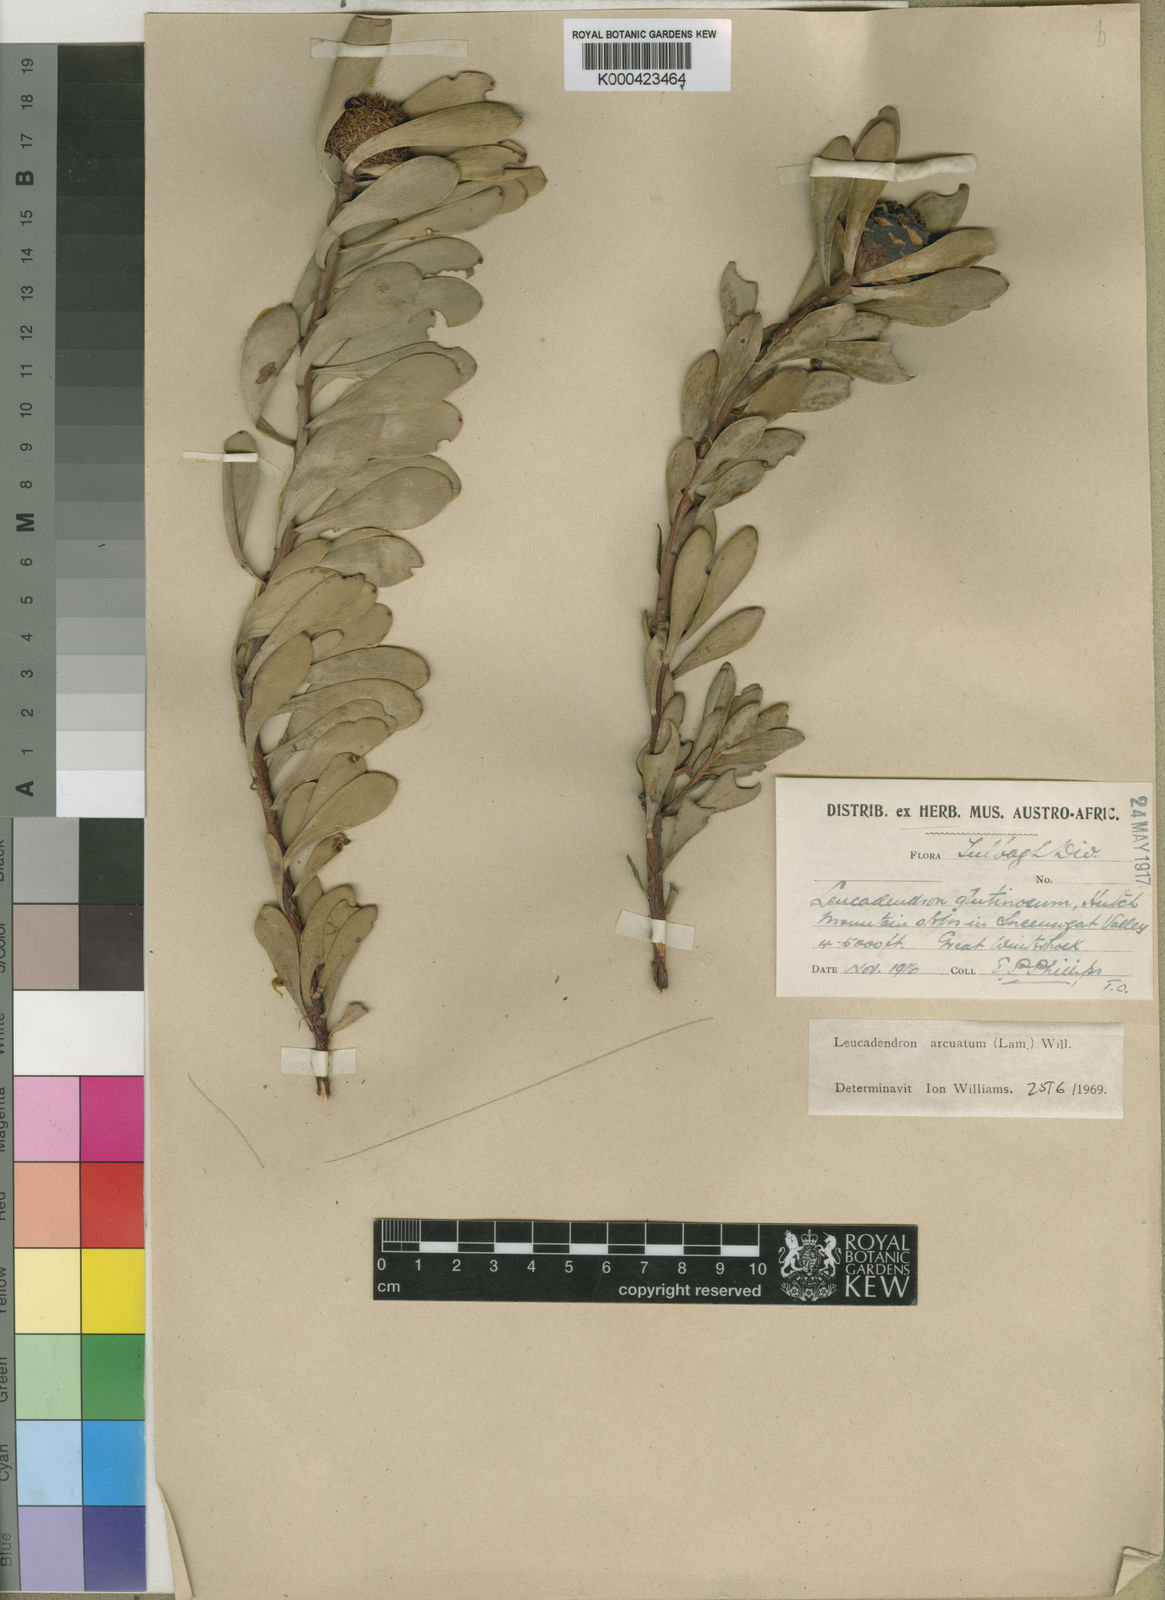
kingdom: Plantae
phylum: Tracheophyta
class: Magnoliopsida
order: Proteales
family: Proteaceae
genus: Leucadendron
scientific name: Leucadendron arcuatum
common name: Red-edge conebush
